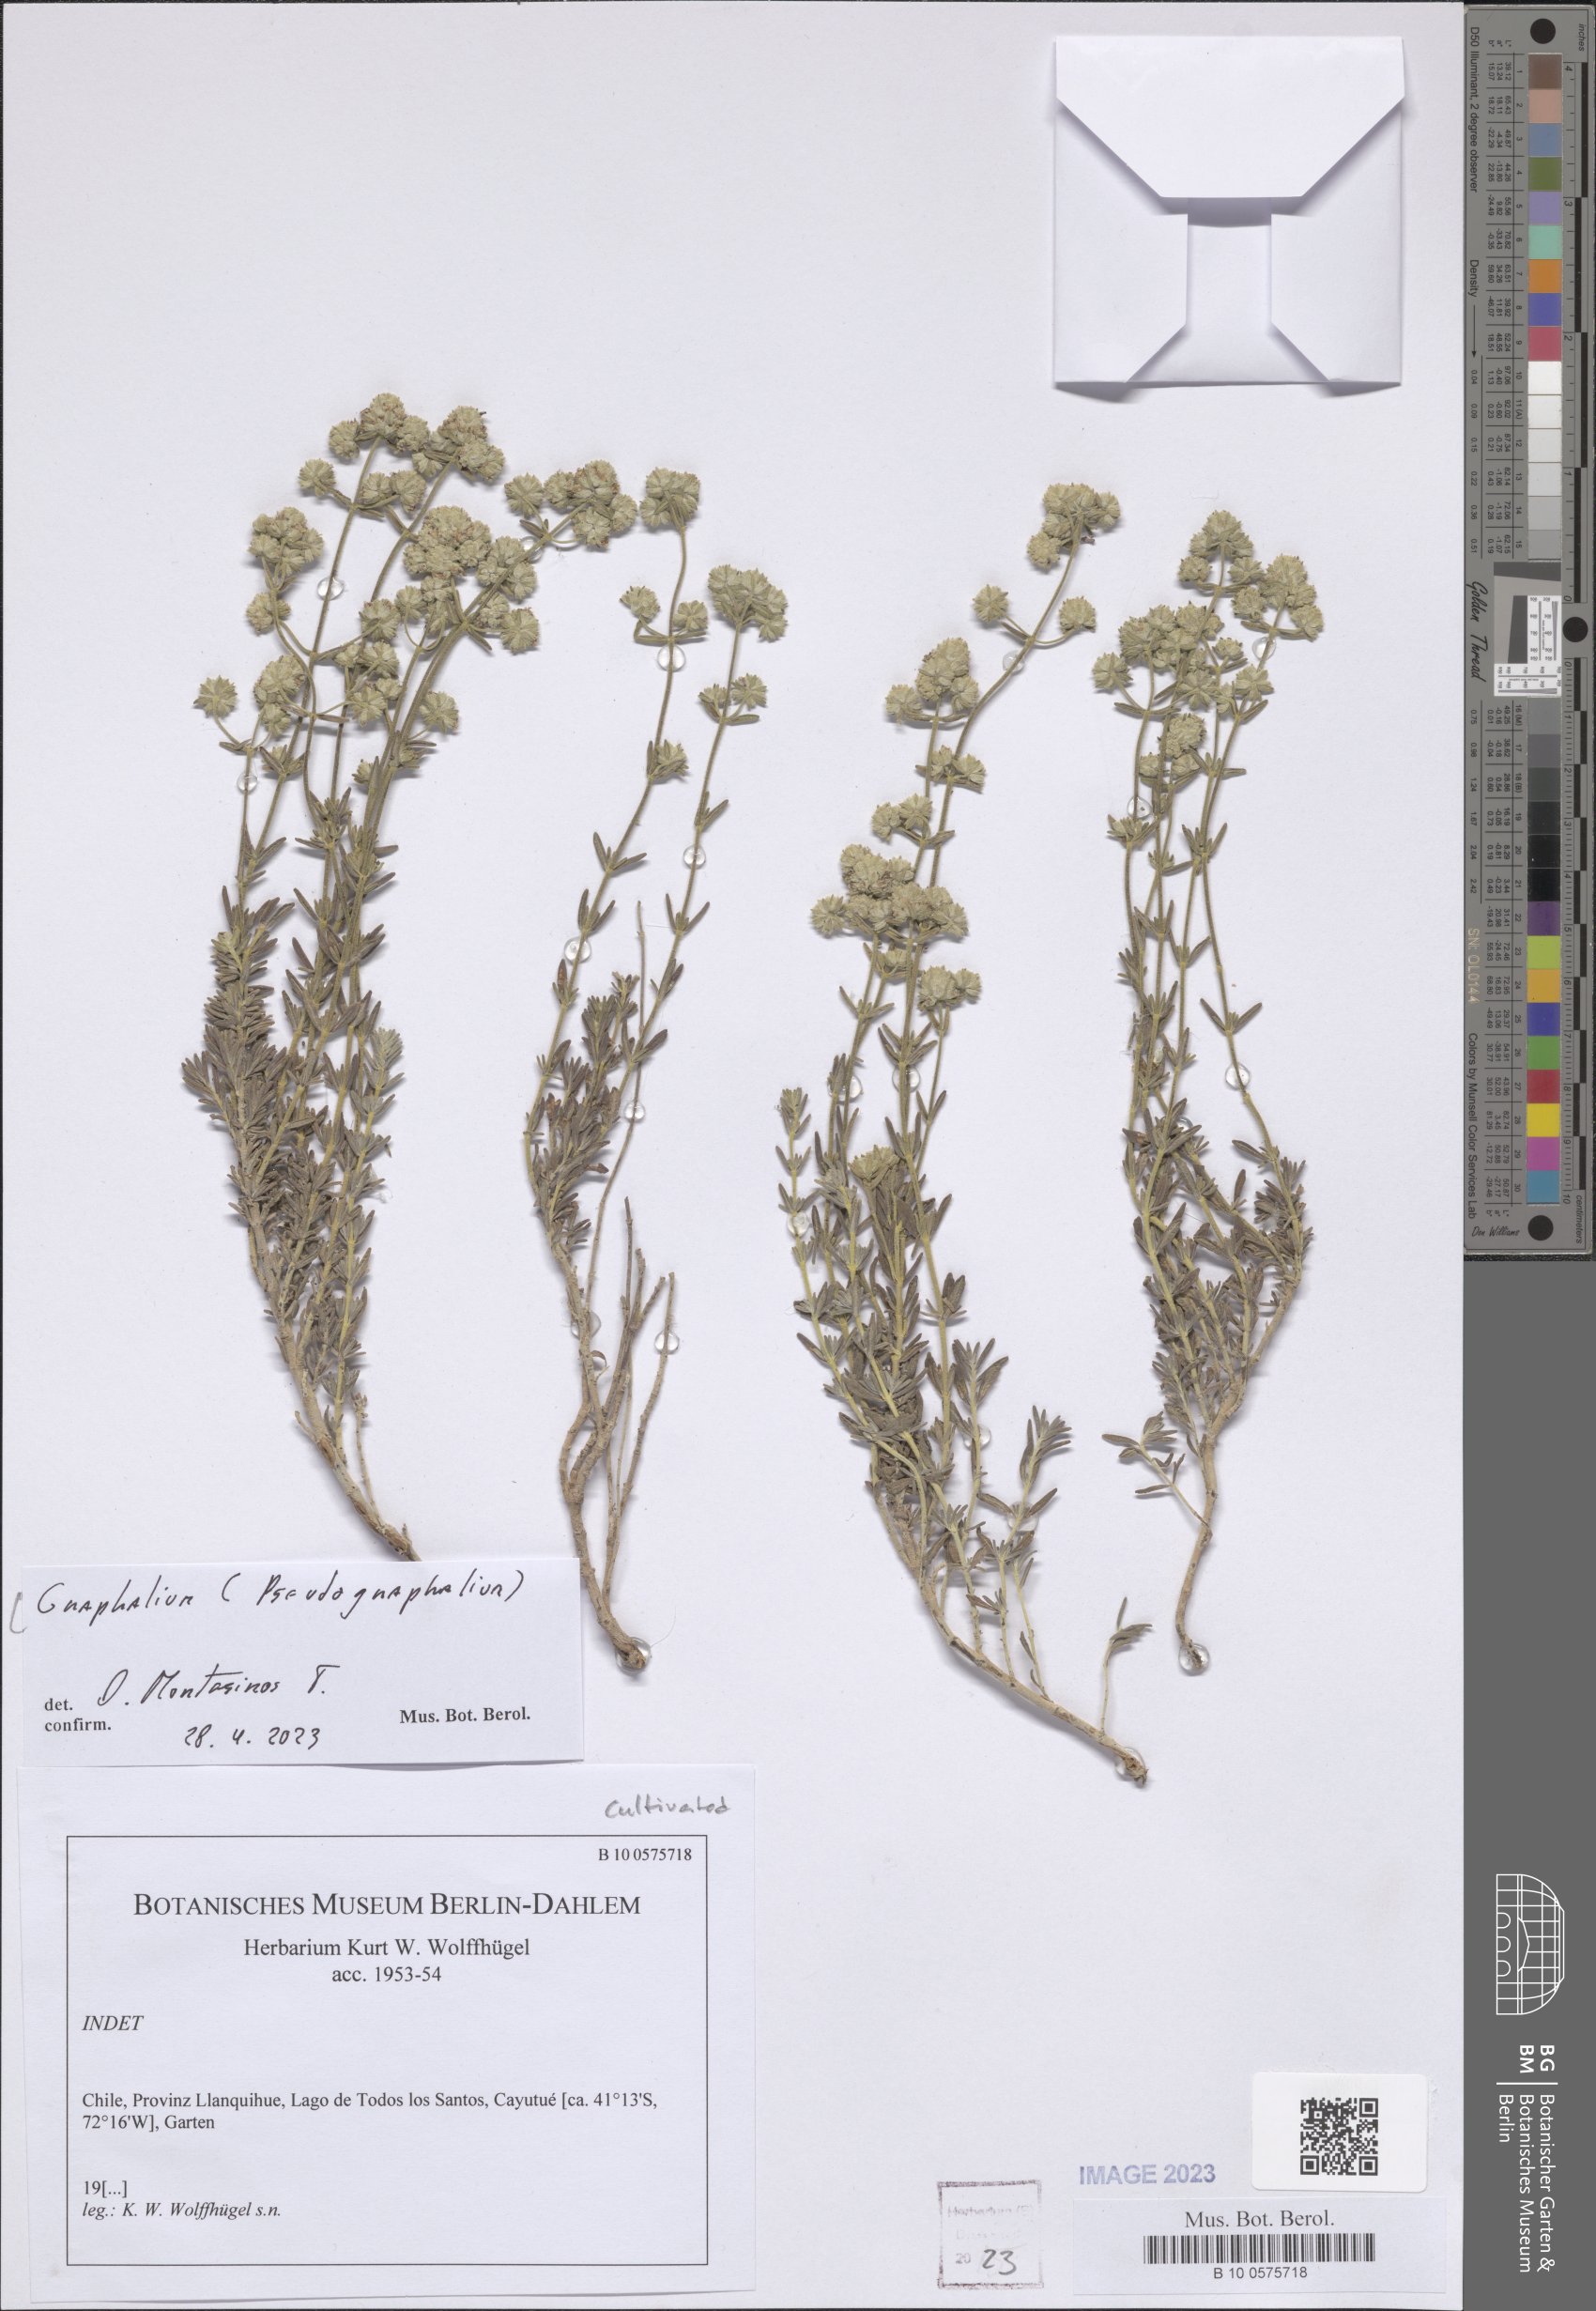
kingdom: Plantae
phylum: Tracheophyta
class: Magnoliopsida
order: Asterales
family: Asteraceae
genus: Gnaphalium
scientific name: Gnaphalium
